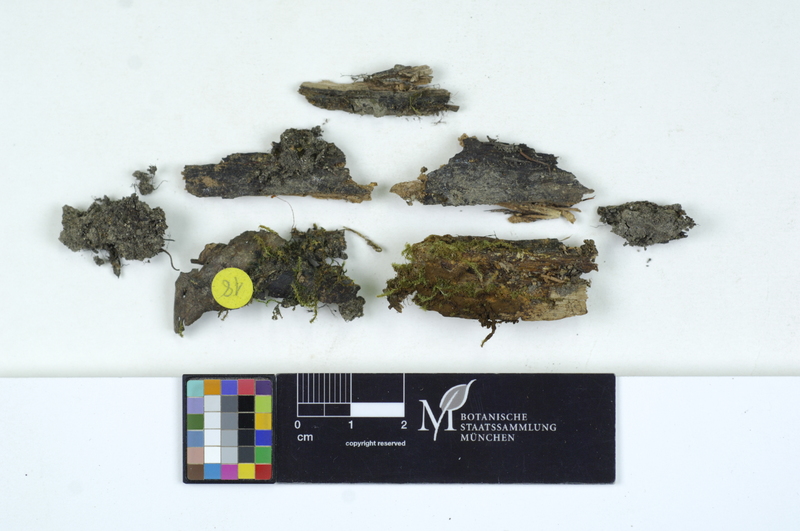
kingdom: Fungi
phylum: Basidiomycota
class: Agaricomycetes
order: Sebacinales
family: Sebacinaceae
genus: Sebacina
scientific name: Sebacina epigaea
